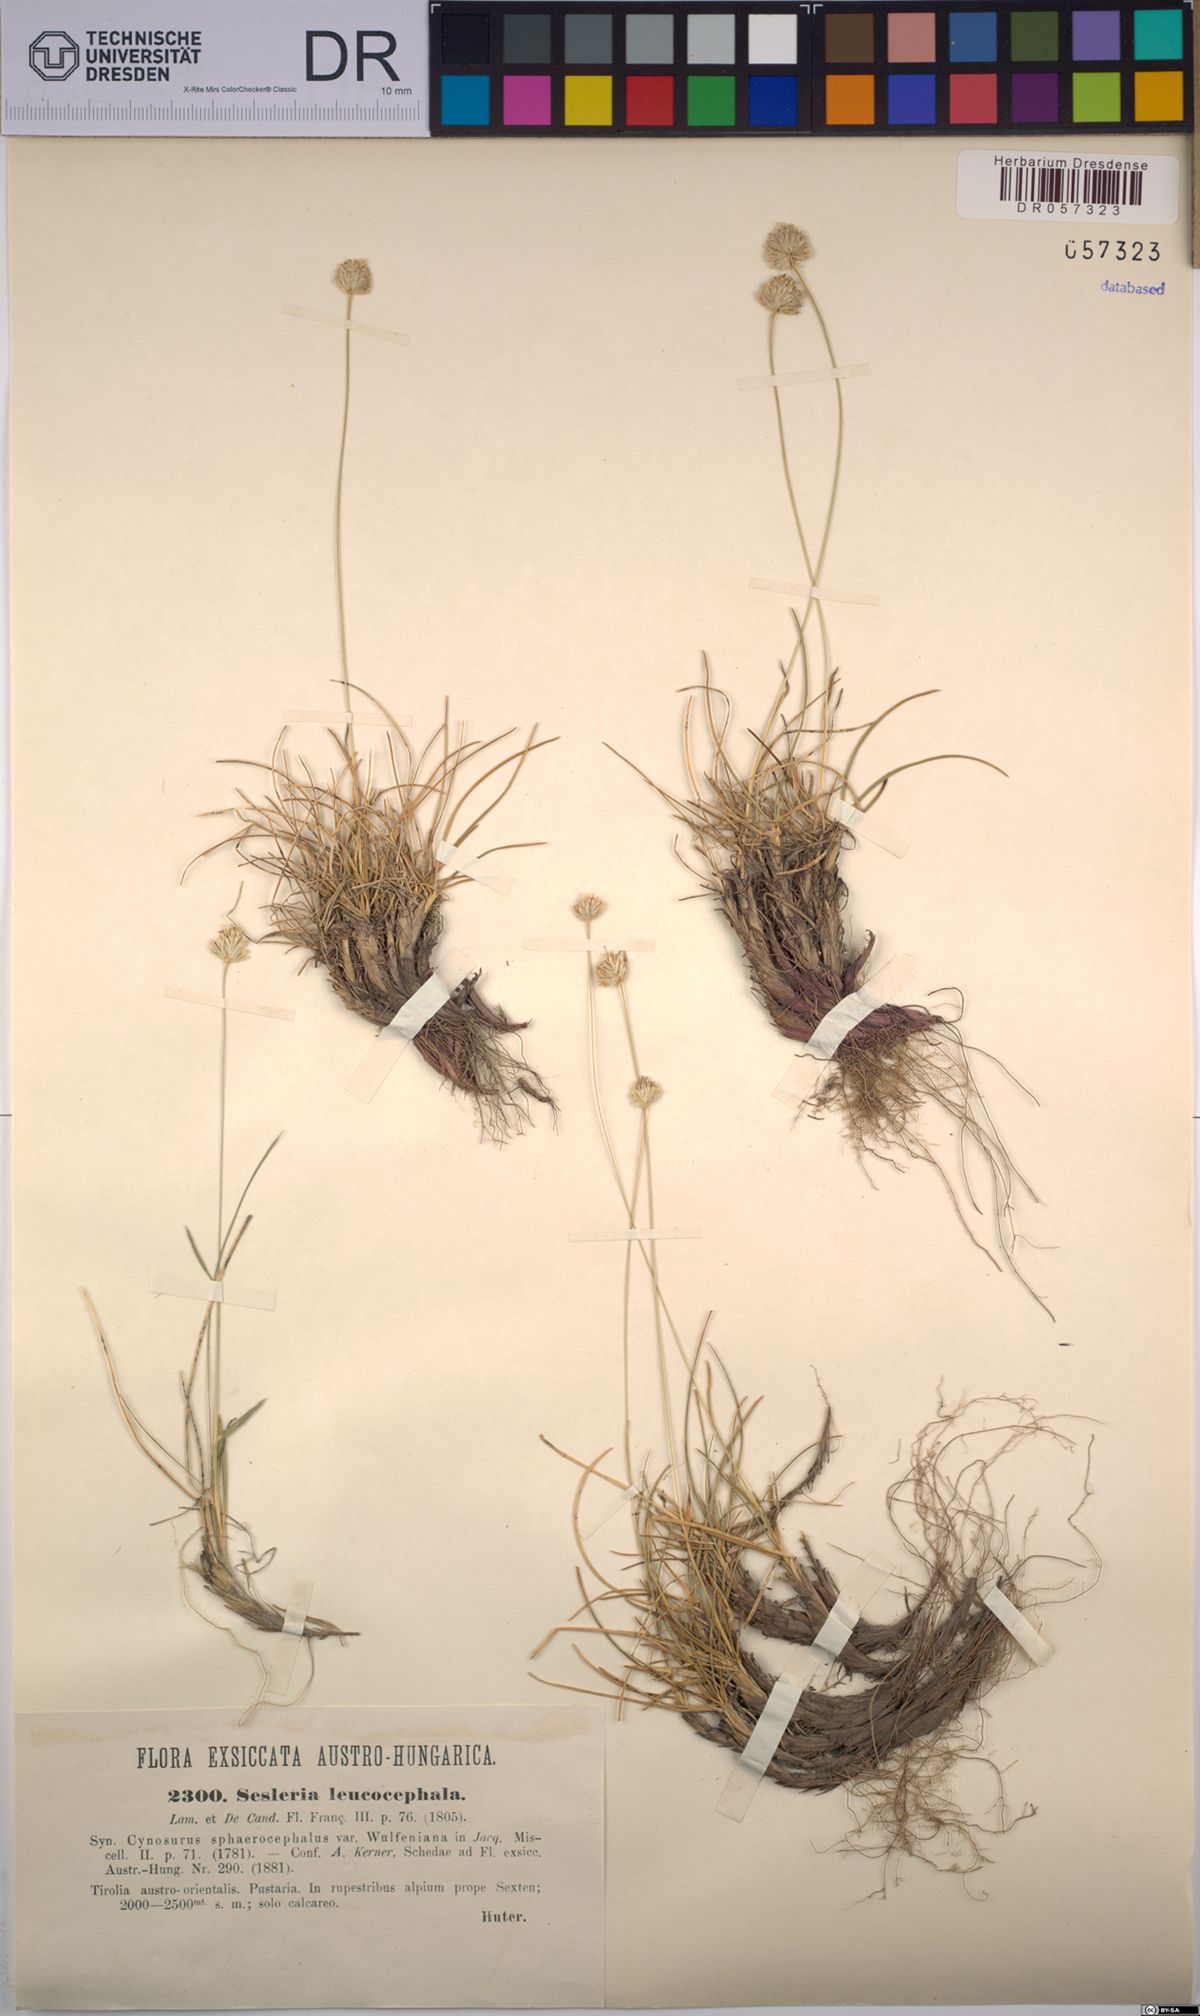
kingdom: Plantae
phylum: Tracheophyta
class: Liliopsida
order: Poales
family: Poaceae
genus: Sesleriella
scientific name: Sesleriella sphaerocephala
